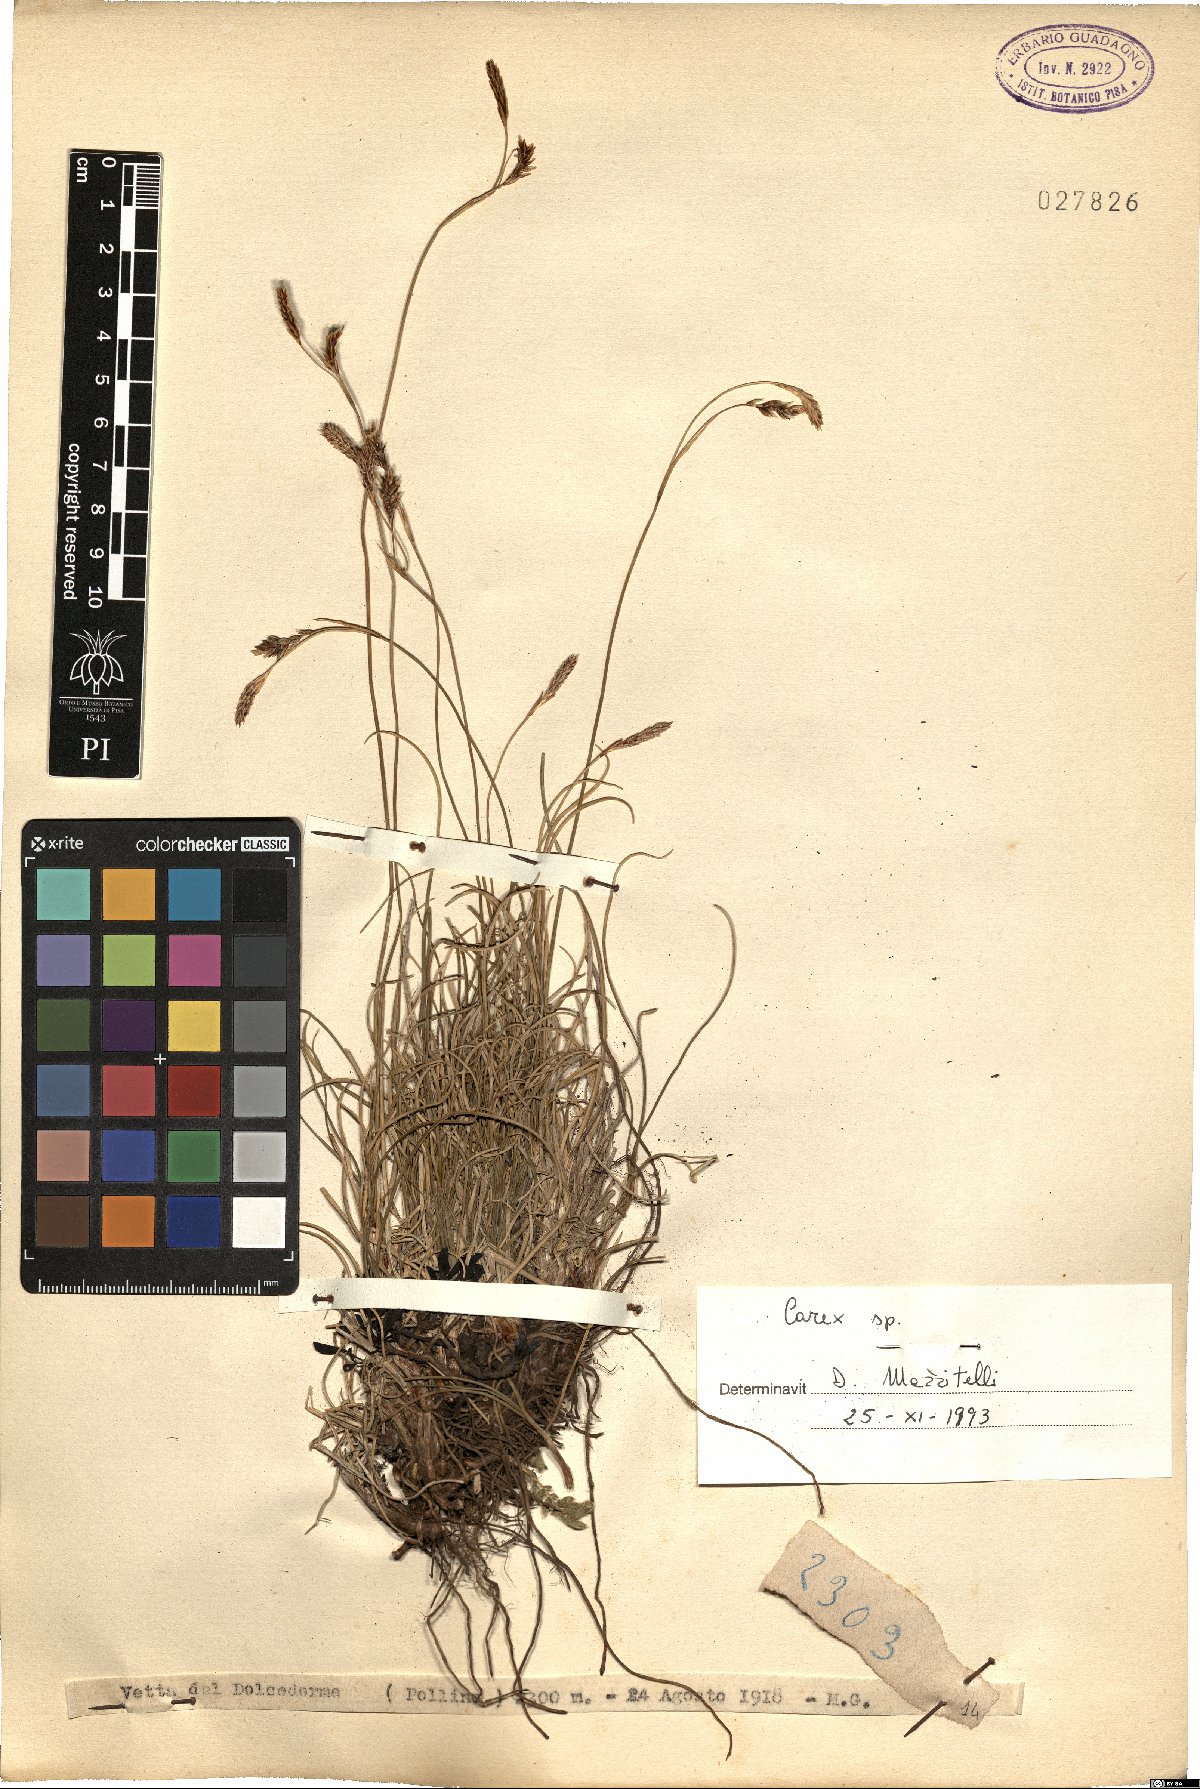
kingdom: Plantae
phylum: Tracheophyta
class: Liliopsida
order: Poales
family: Cyperaceae
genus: Carex
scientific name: Carex
